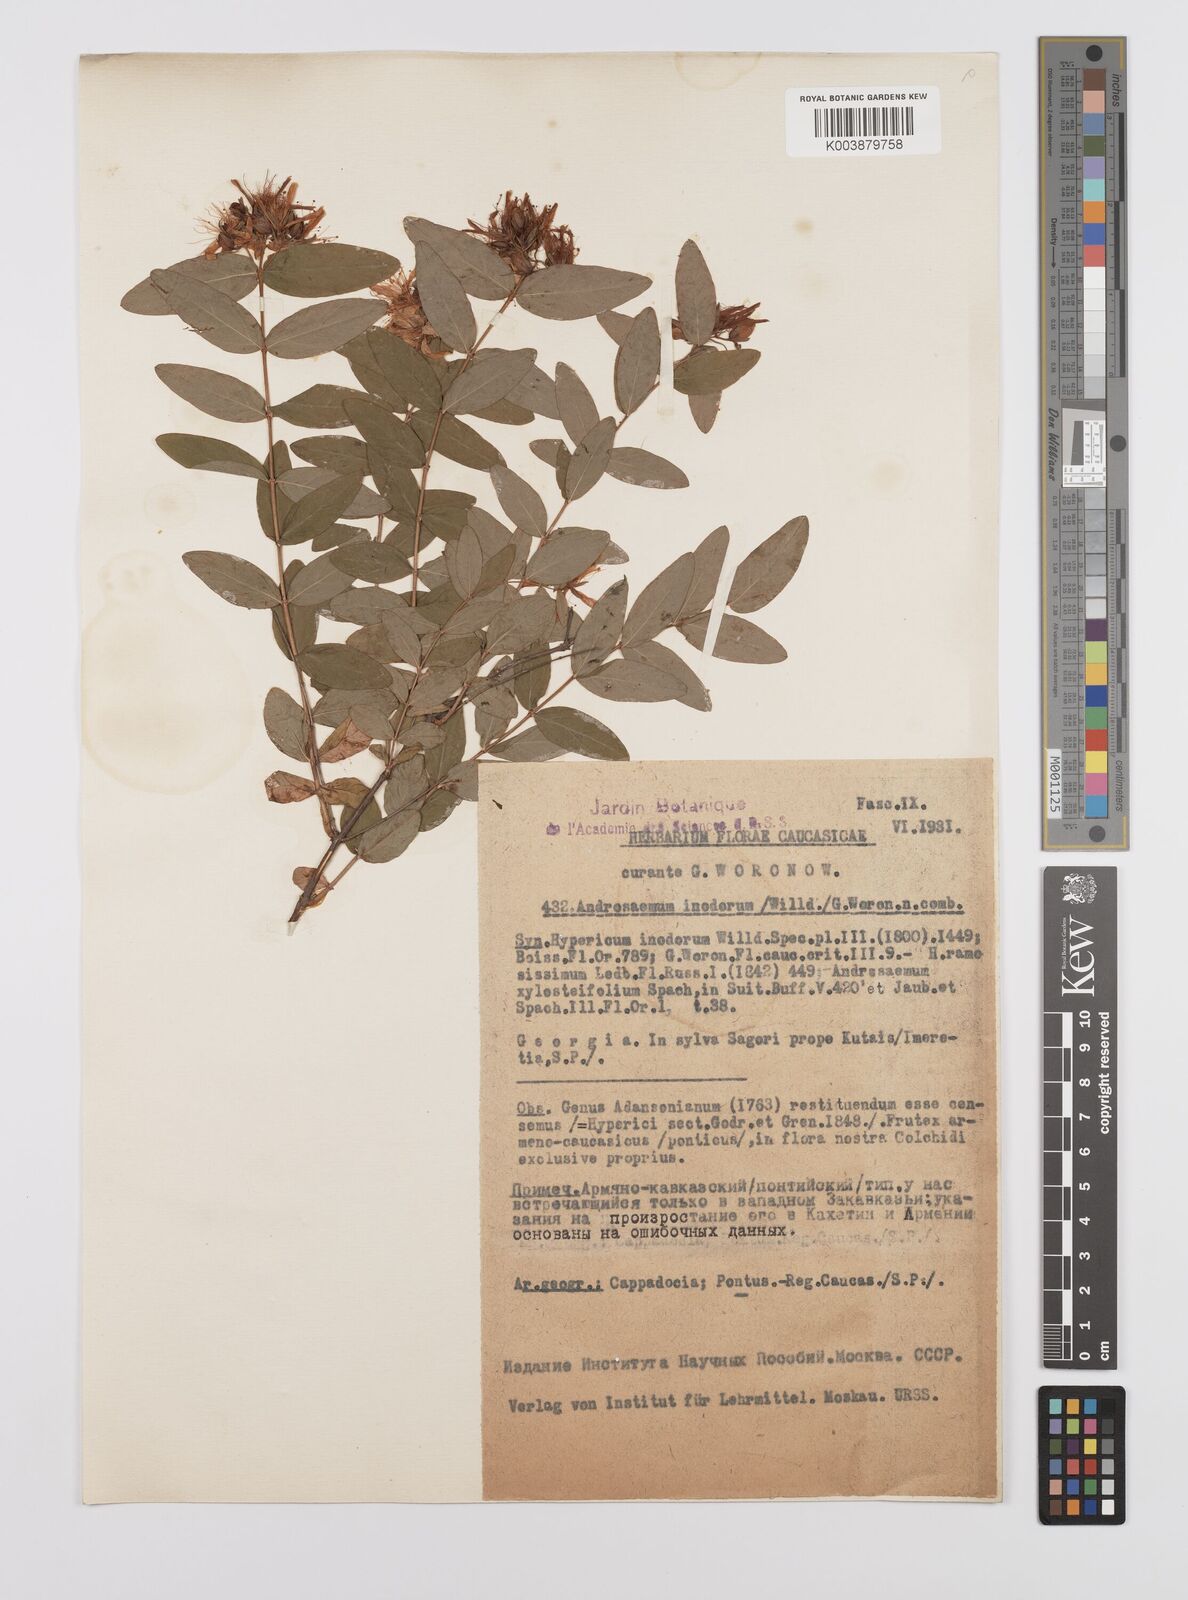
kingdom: Plantae
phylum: Tracheophyta
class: Magnoliopsida
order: Malpighiales
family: Hypericaceae
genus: Hypericum
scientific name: Hypericum xylosteifolium
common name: Turkish tutsan
